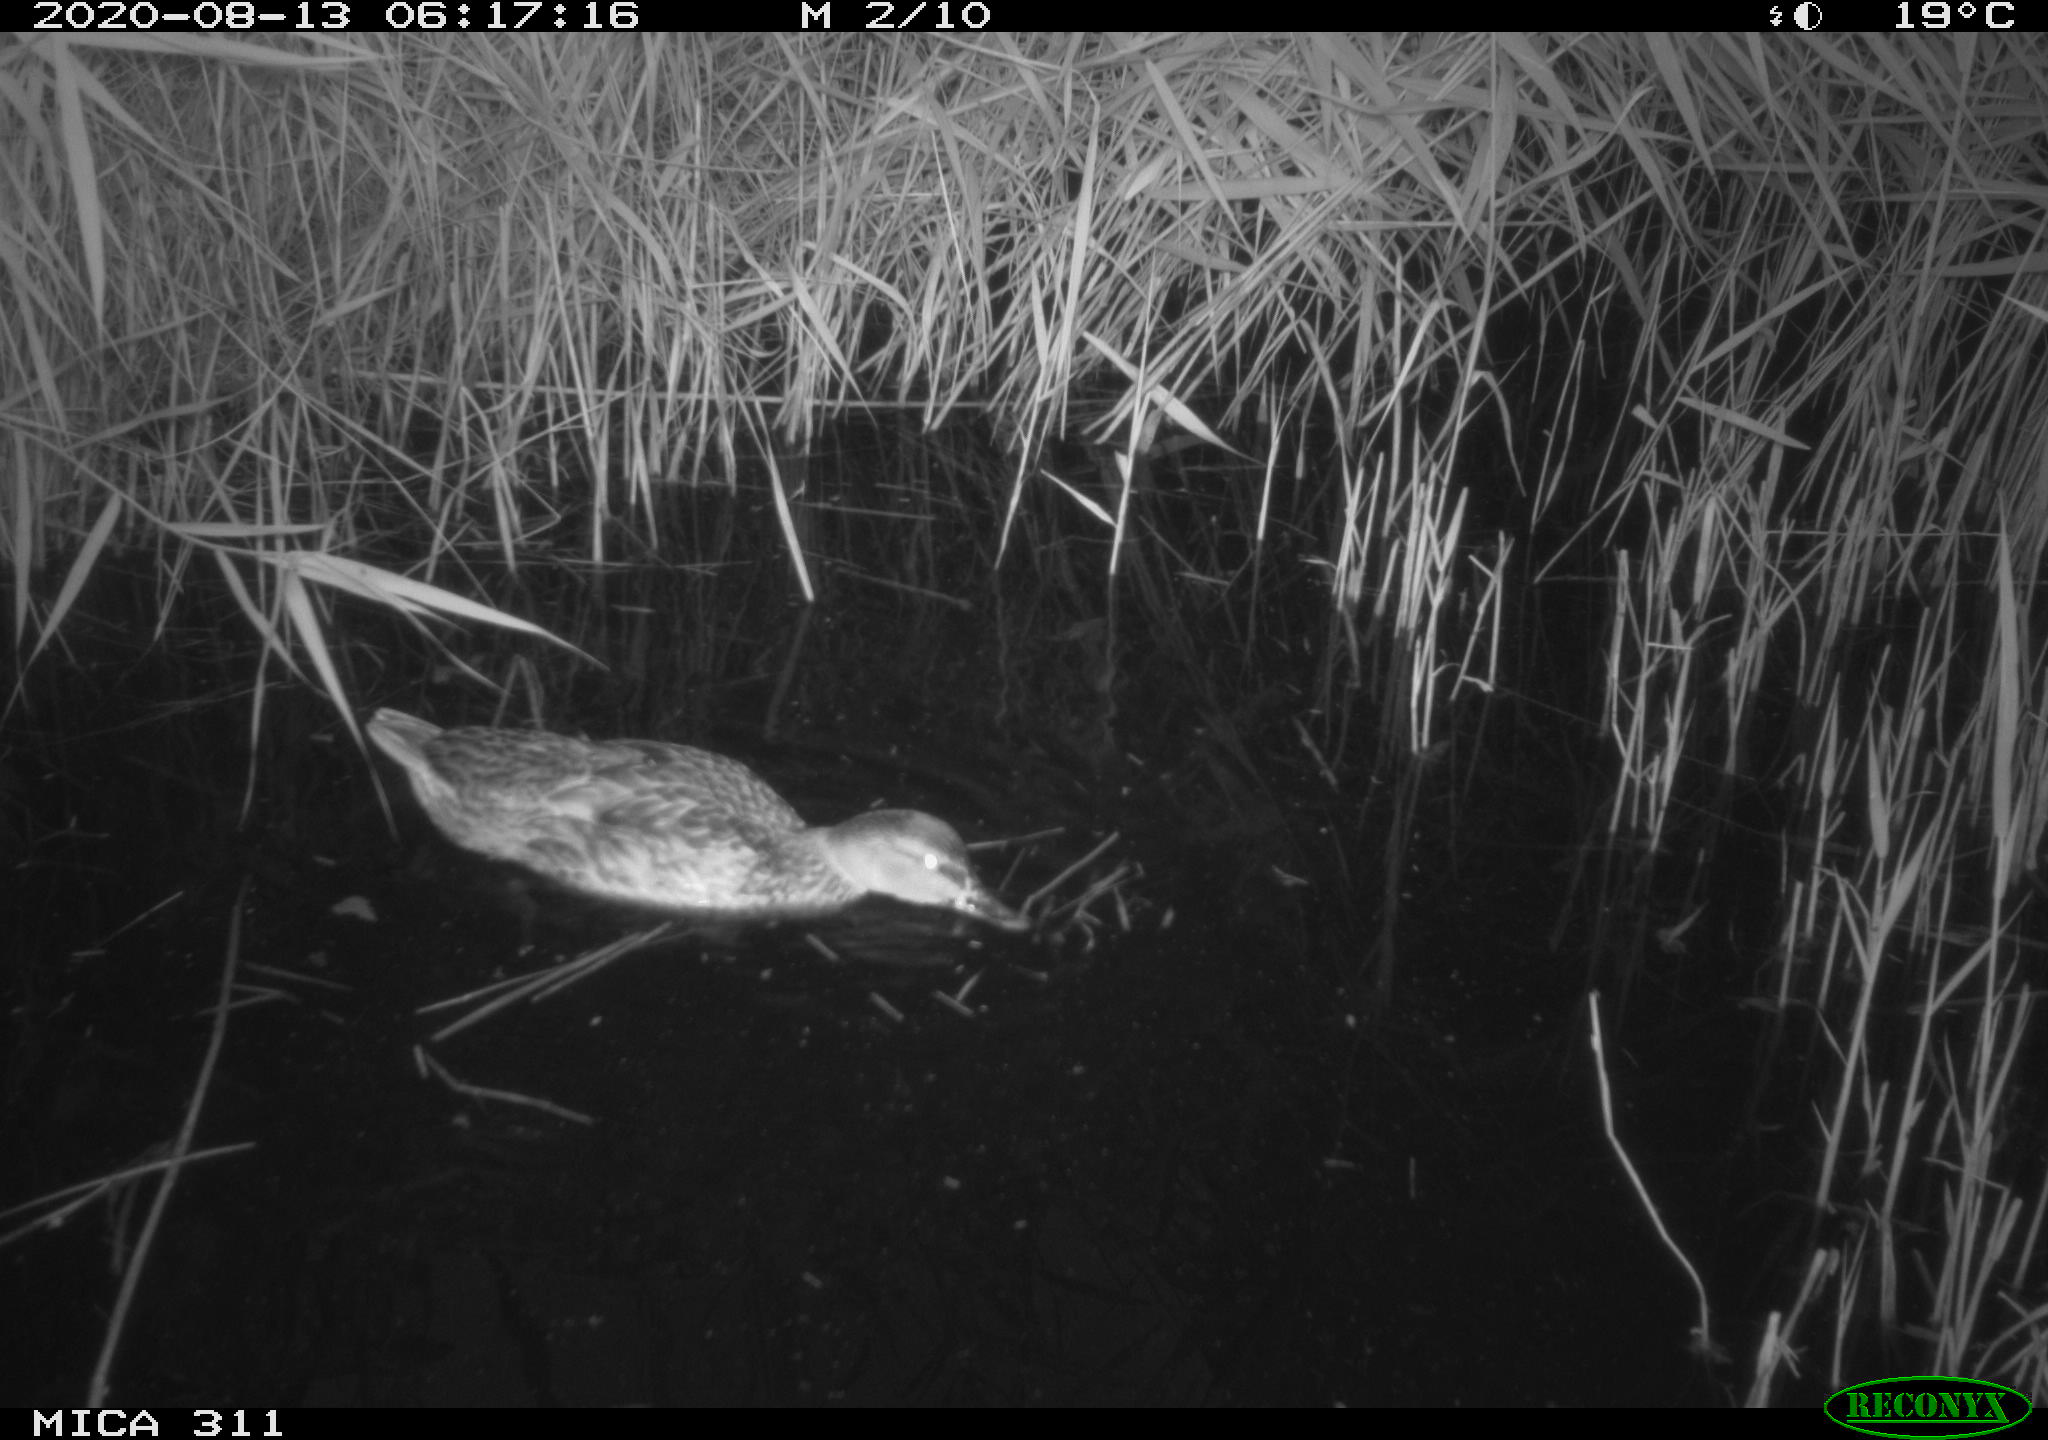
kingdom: Animalia
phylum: Chordata
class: Aves
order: Anseriformes
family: Anatidae
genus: Anas
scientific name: Anas platyrhynchos
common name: Mallard
